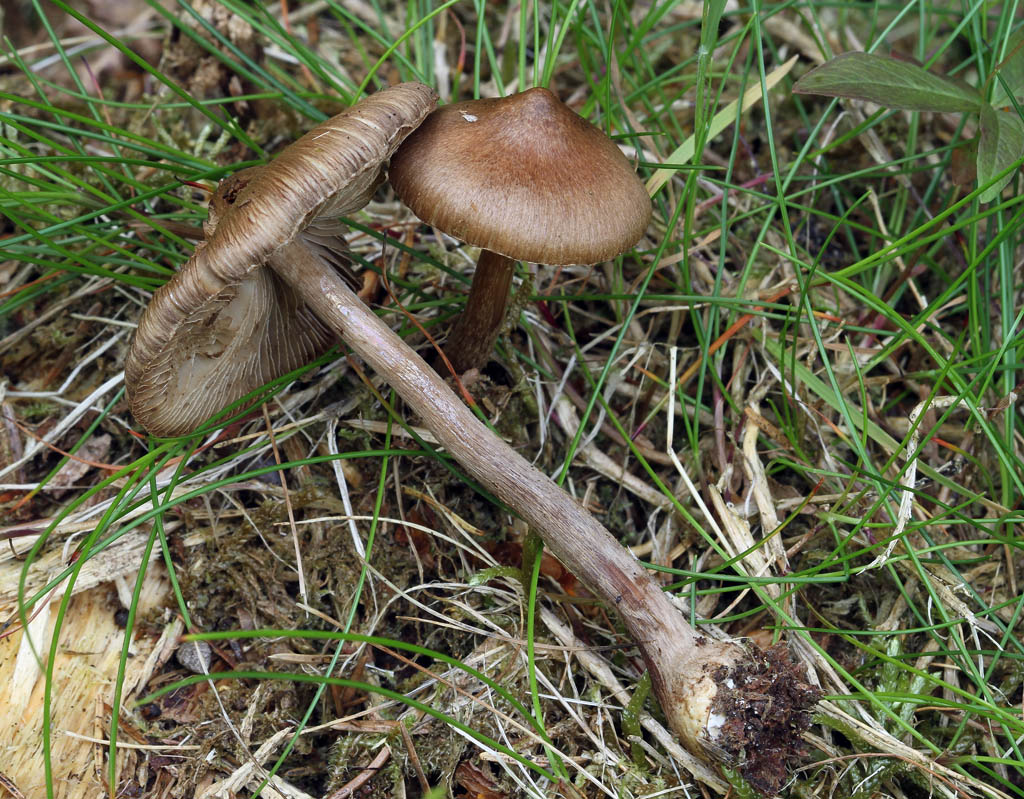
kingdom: Fungi
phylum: Basidiomycota
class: Agaricomycetes
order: Agaricales
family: Inocybaceae
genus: Inocybe
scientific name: Inocybe napipes
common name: roeknoldet trævlhat
